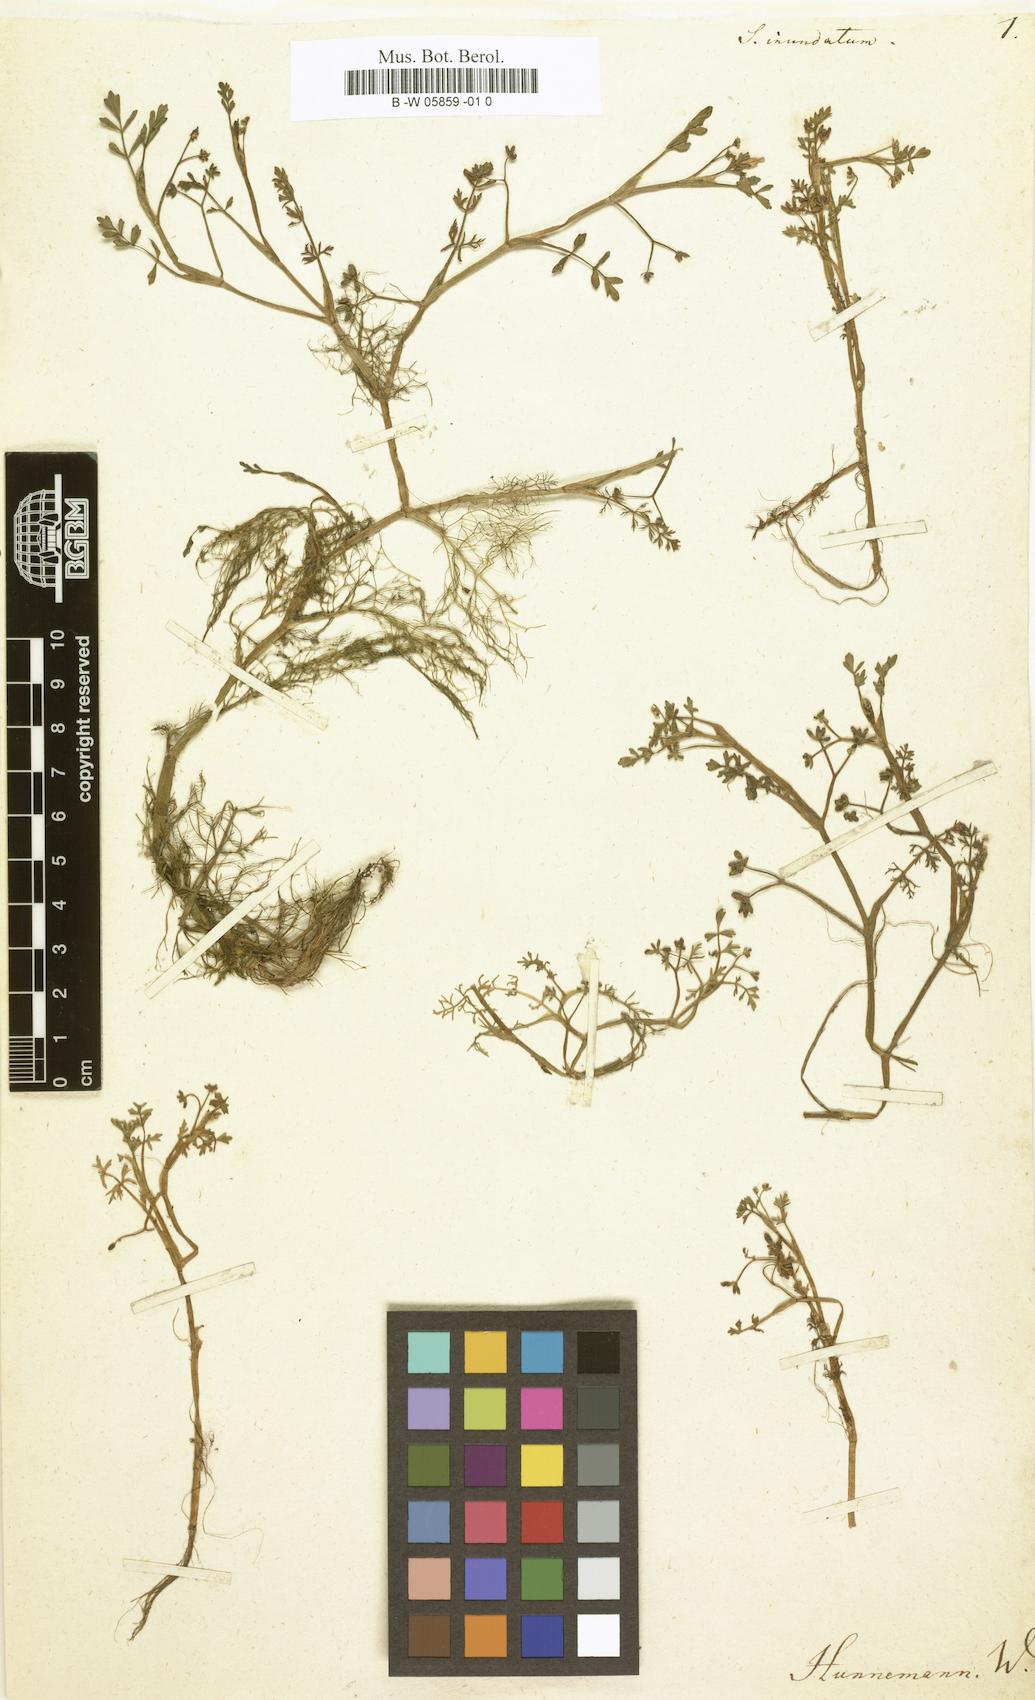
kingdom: Plantae
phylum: Tracheophyta
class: Magnoliopsida
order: Apiales
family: Apiaceae
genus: Helosciadium
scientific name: Helosciadium inundatum
